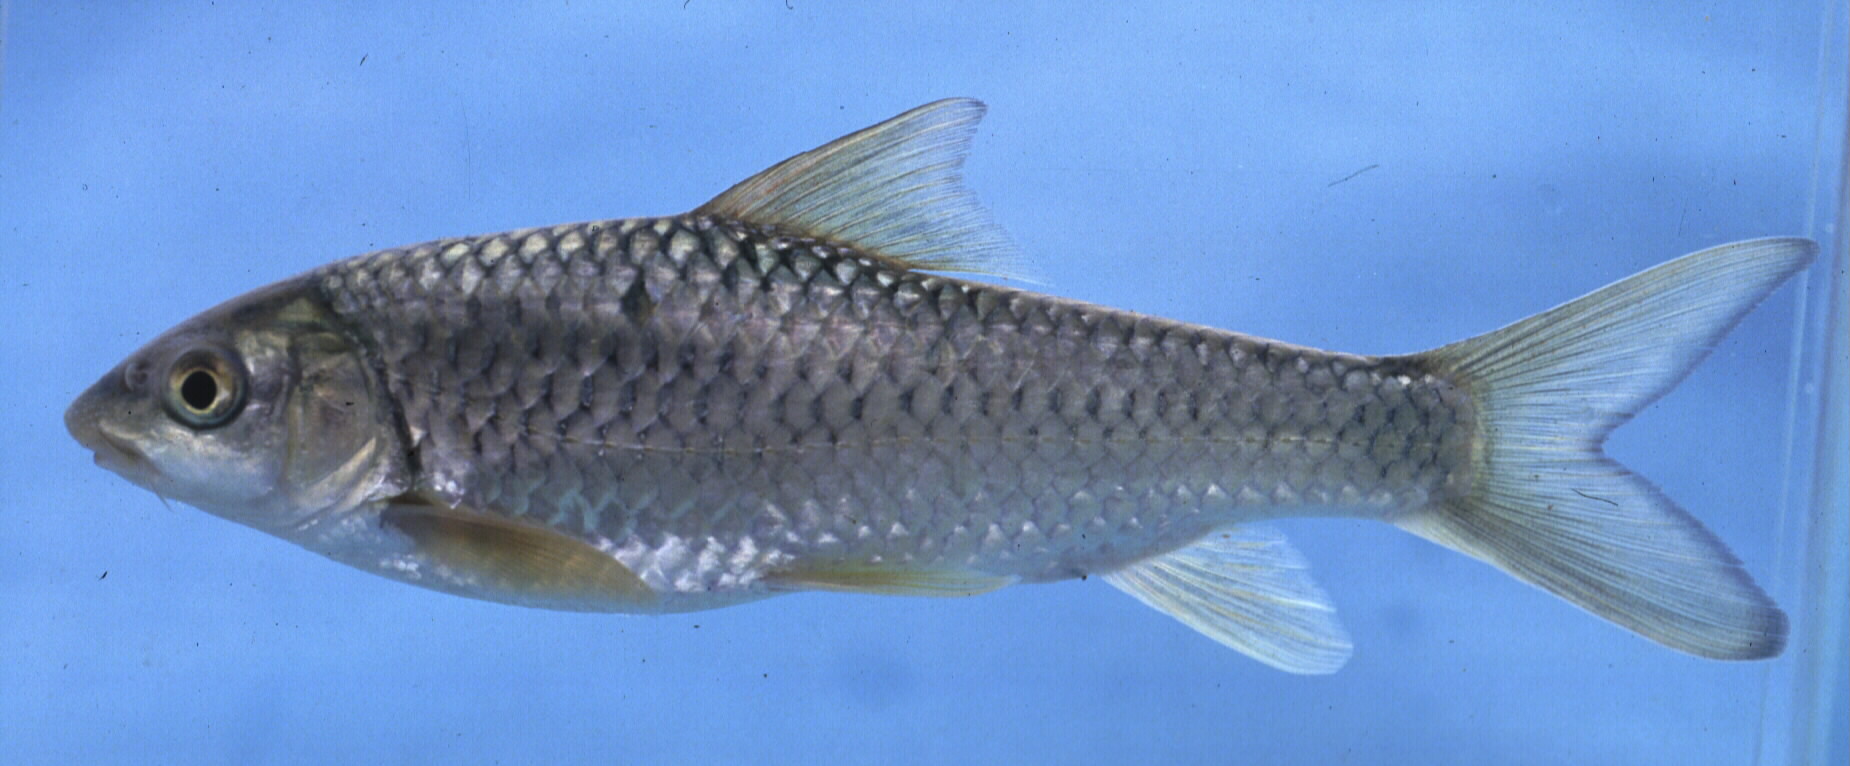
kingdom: Animalia
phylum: Chordata
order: Cypriniformes
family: Cyprinidae
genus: Labeobarbus
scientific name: Labeobarbus marequensis
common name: Largescale yellowfish
